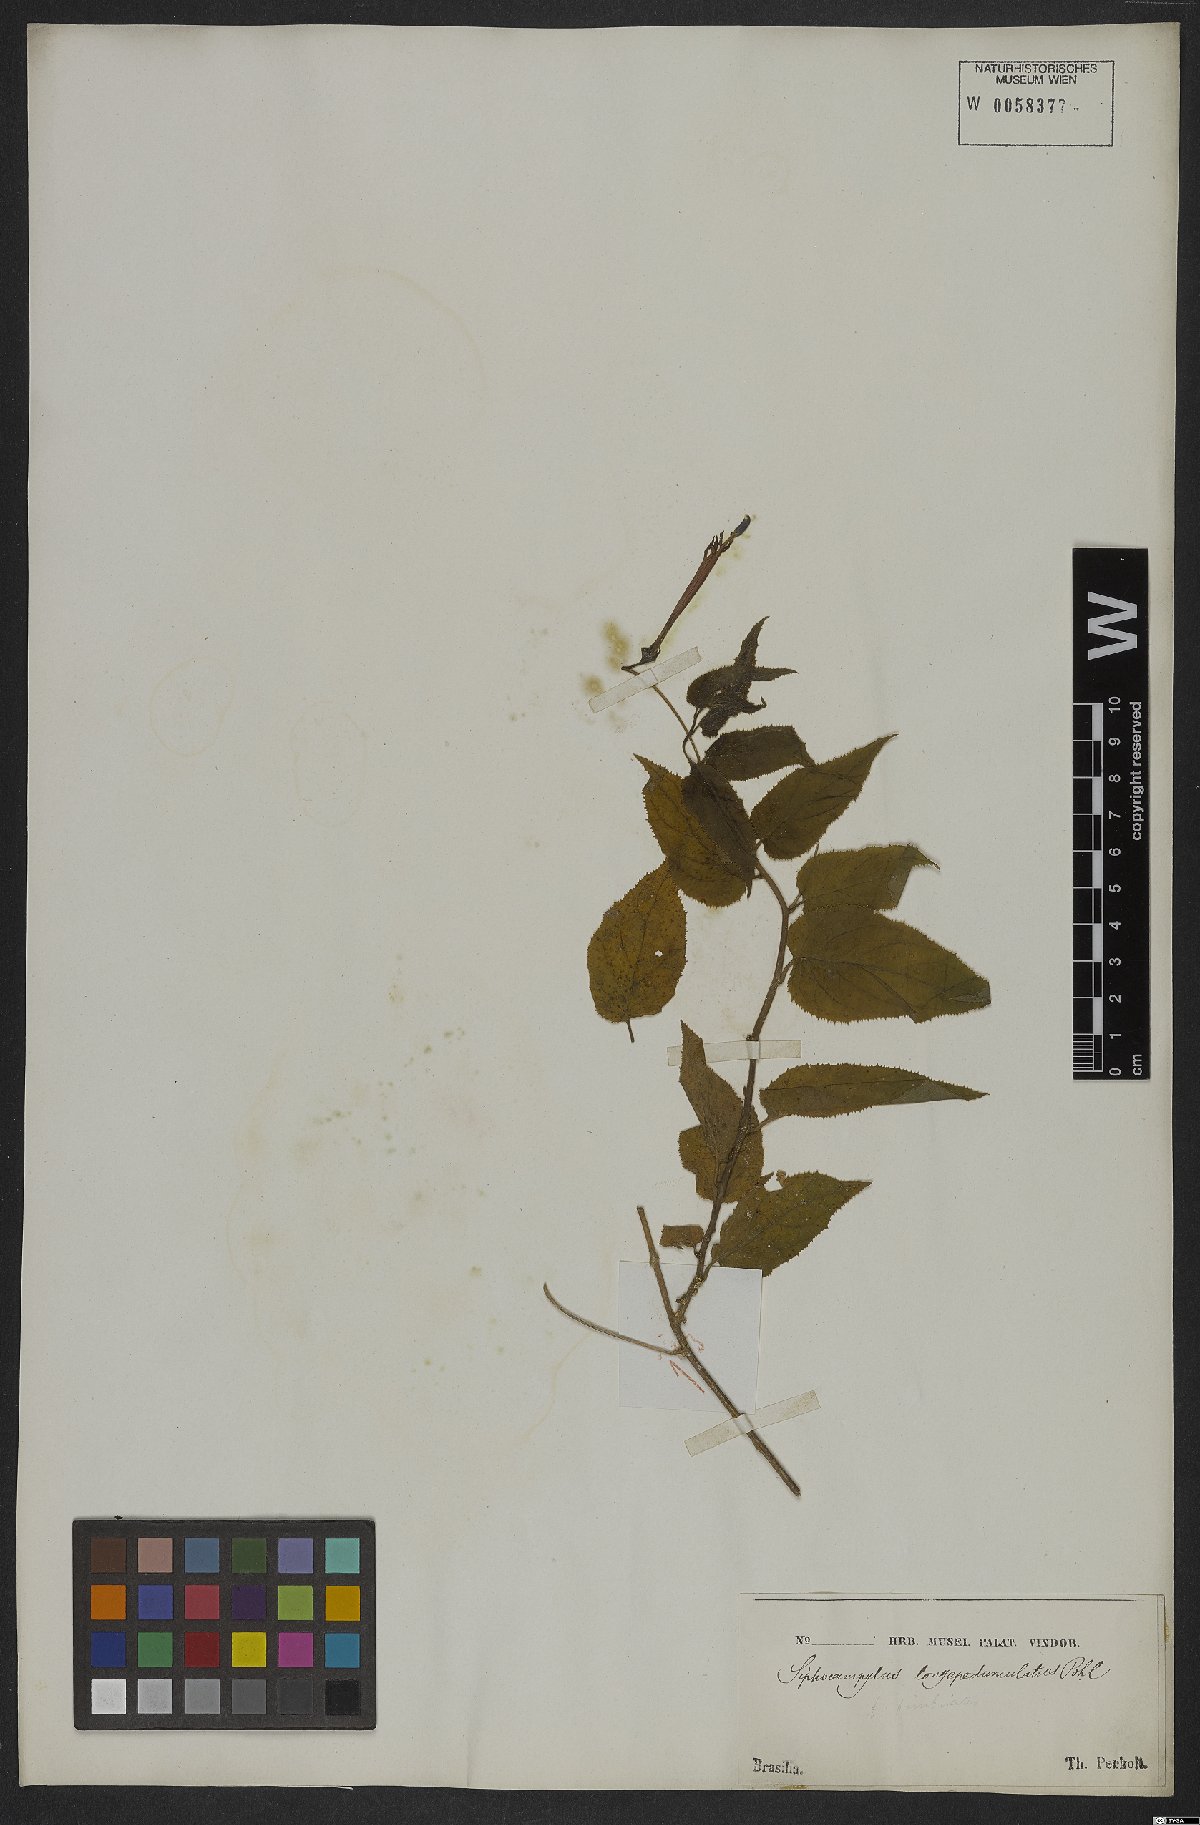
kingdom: Plantae
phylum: Tracheophyta
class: Magnoliopsida
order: Asterales
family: Campanulaceae
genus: Siphocampylus
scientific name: Siphocampylus longipedunculatus
